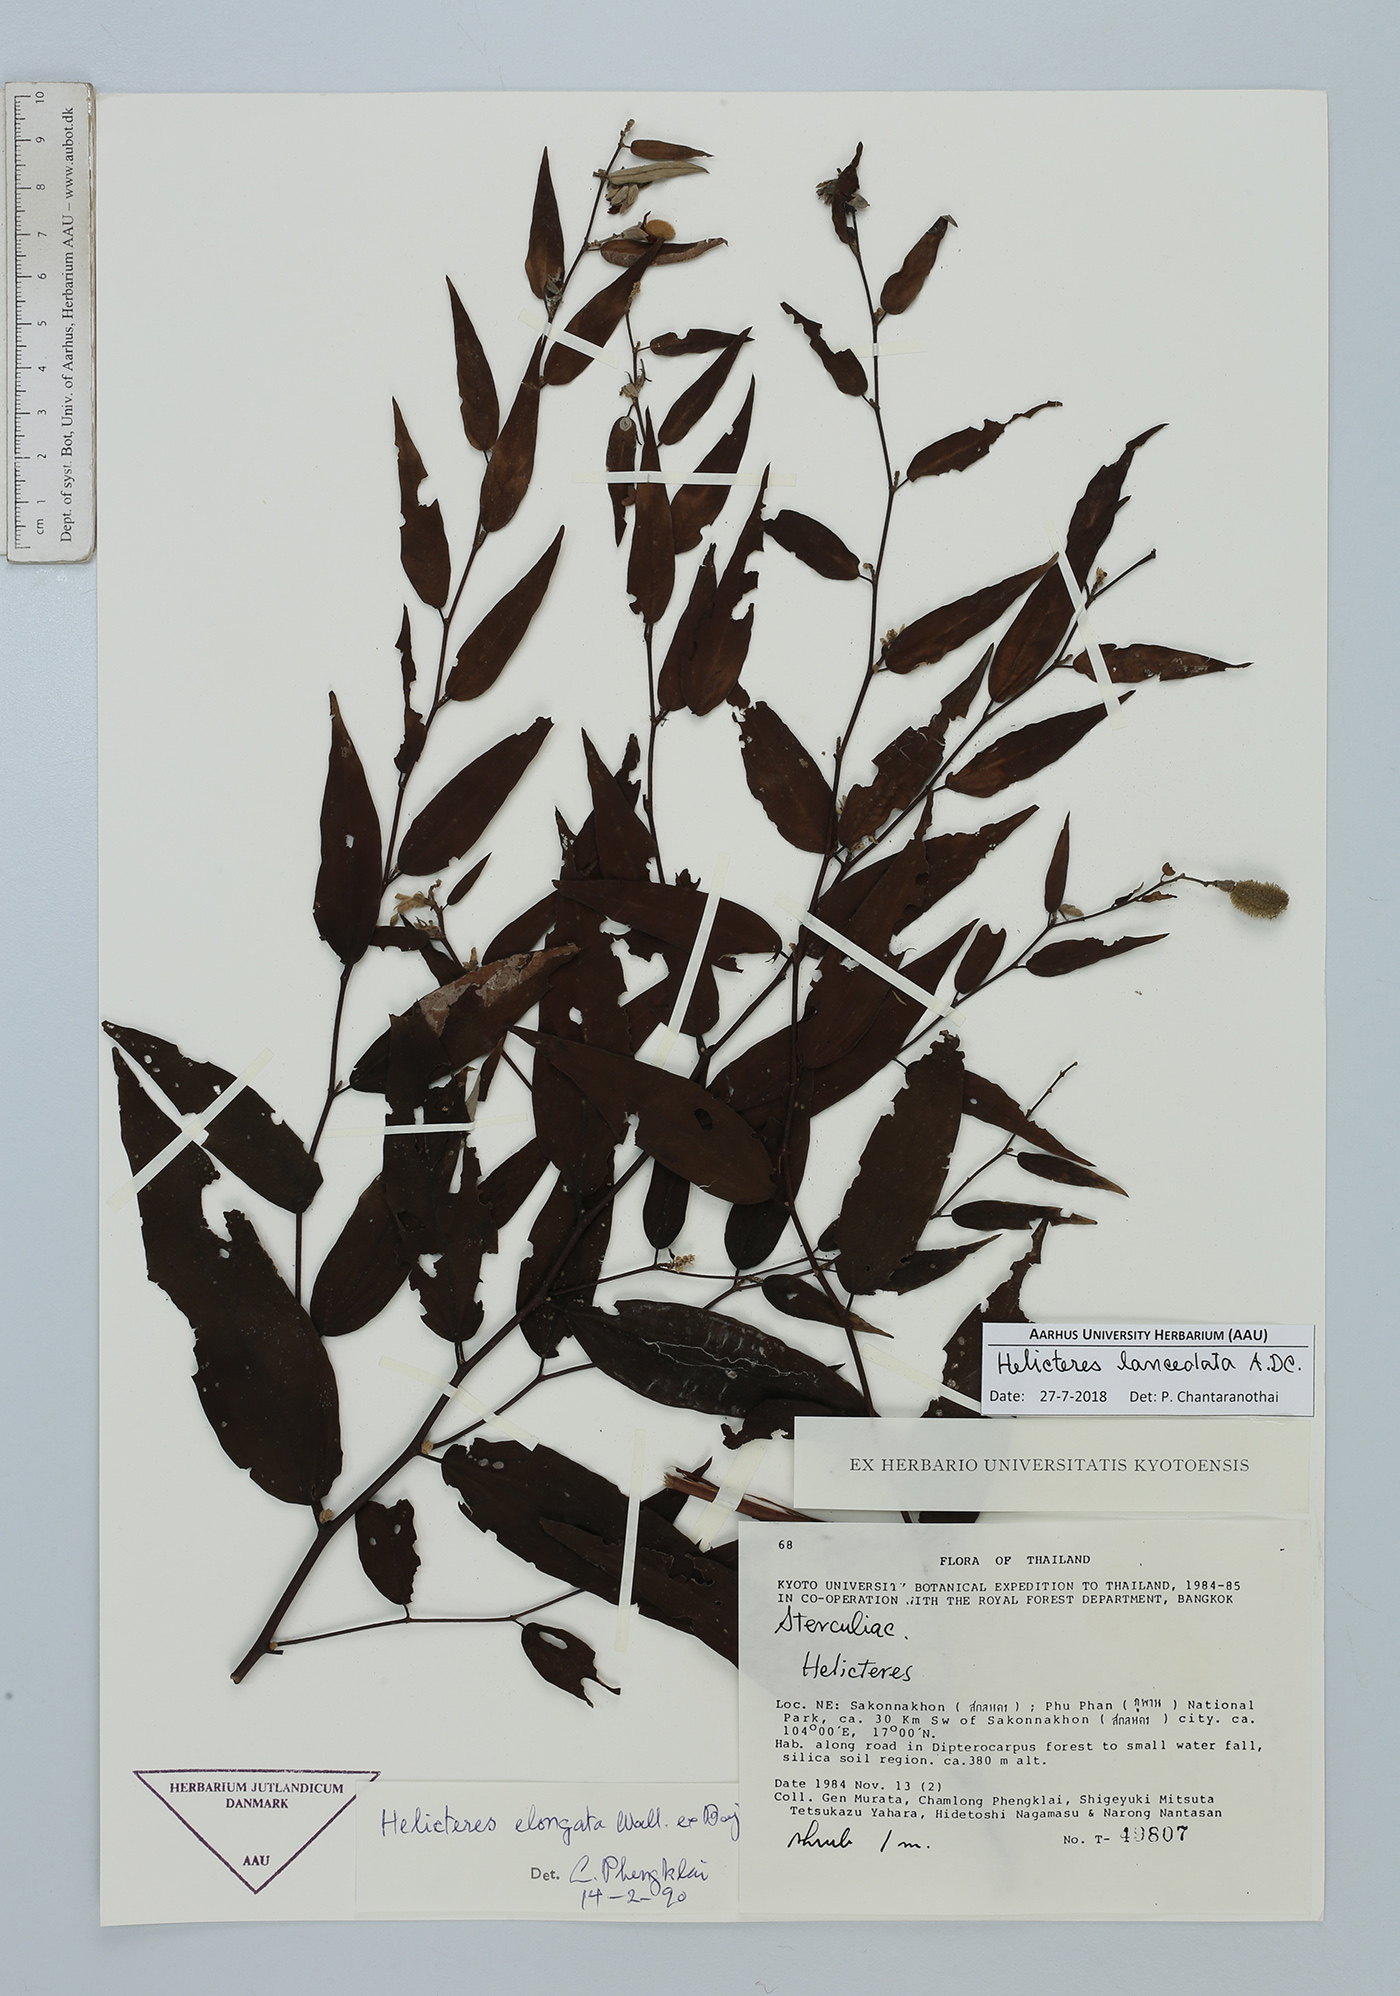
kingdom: Plantae
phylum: Tracheophyta
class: Magnoliopsida
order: Malvales
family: Malvaceae
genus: Helicteres
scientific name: Helicteres lanceolata
